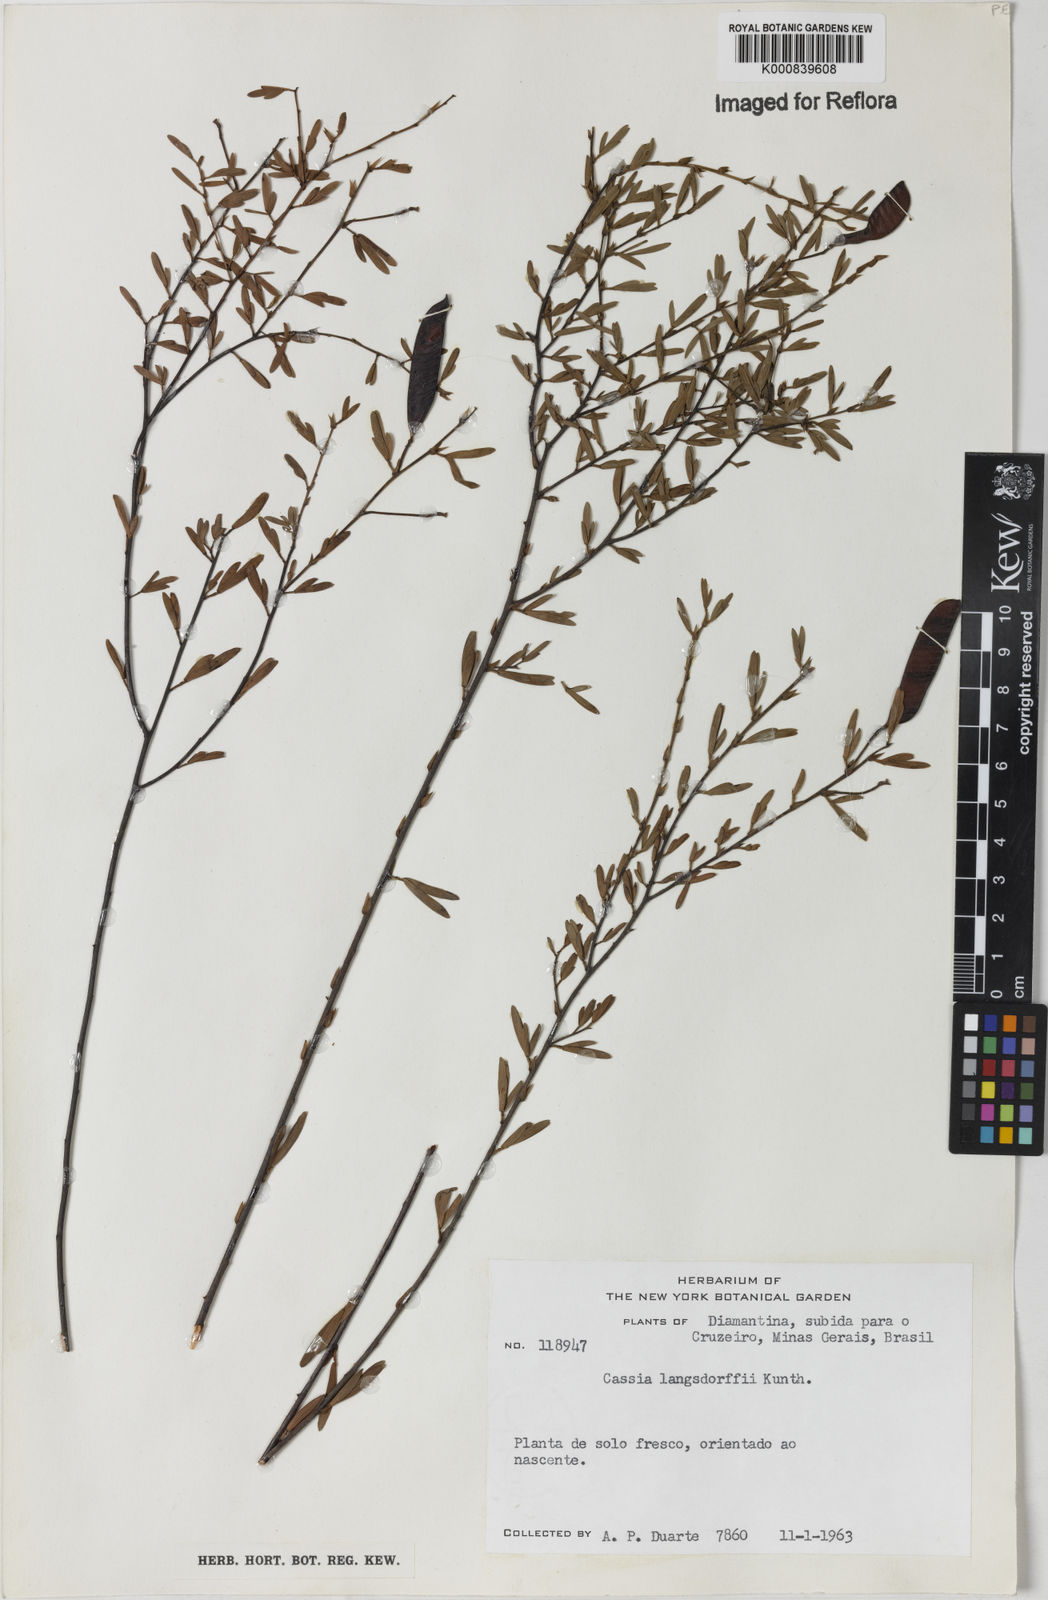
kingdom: Plantae
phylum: Tracheophyta
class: Magnoliopsida
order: Fabales
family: Fabaceae
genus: Chamaecrista
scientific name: Chamaecrista ramosa
